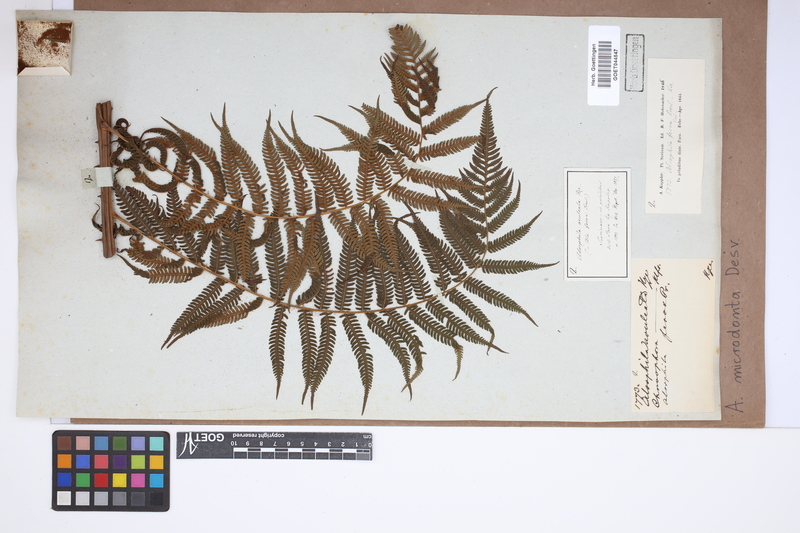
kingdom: Plantae
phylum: Tracheophyta
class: Polypodiopsida
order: Cyatheales
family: Cyatheaceae
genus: Cyathea
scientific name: Cyathea microdonta
